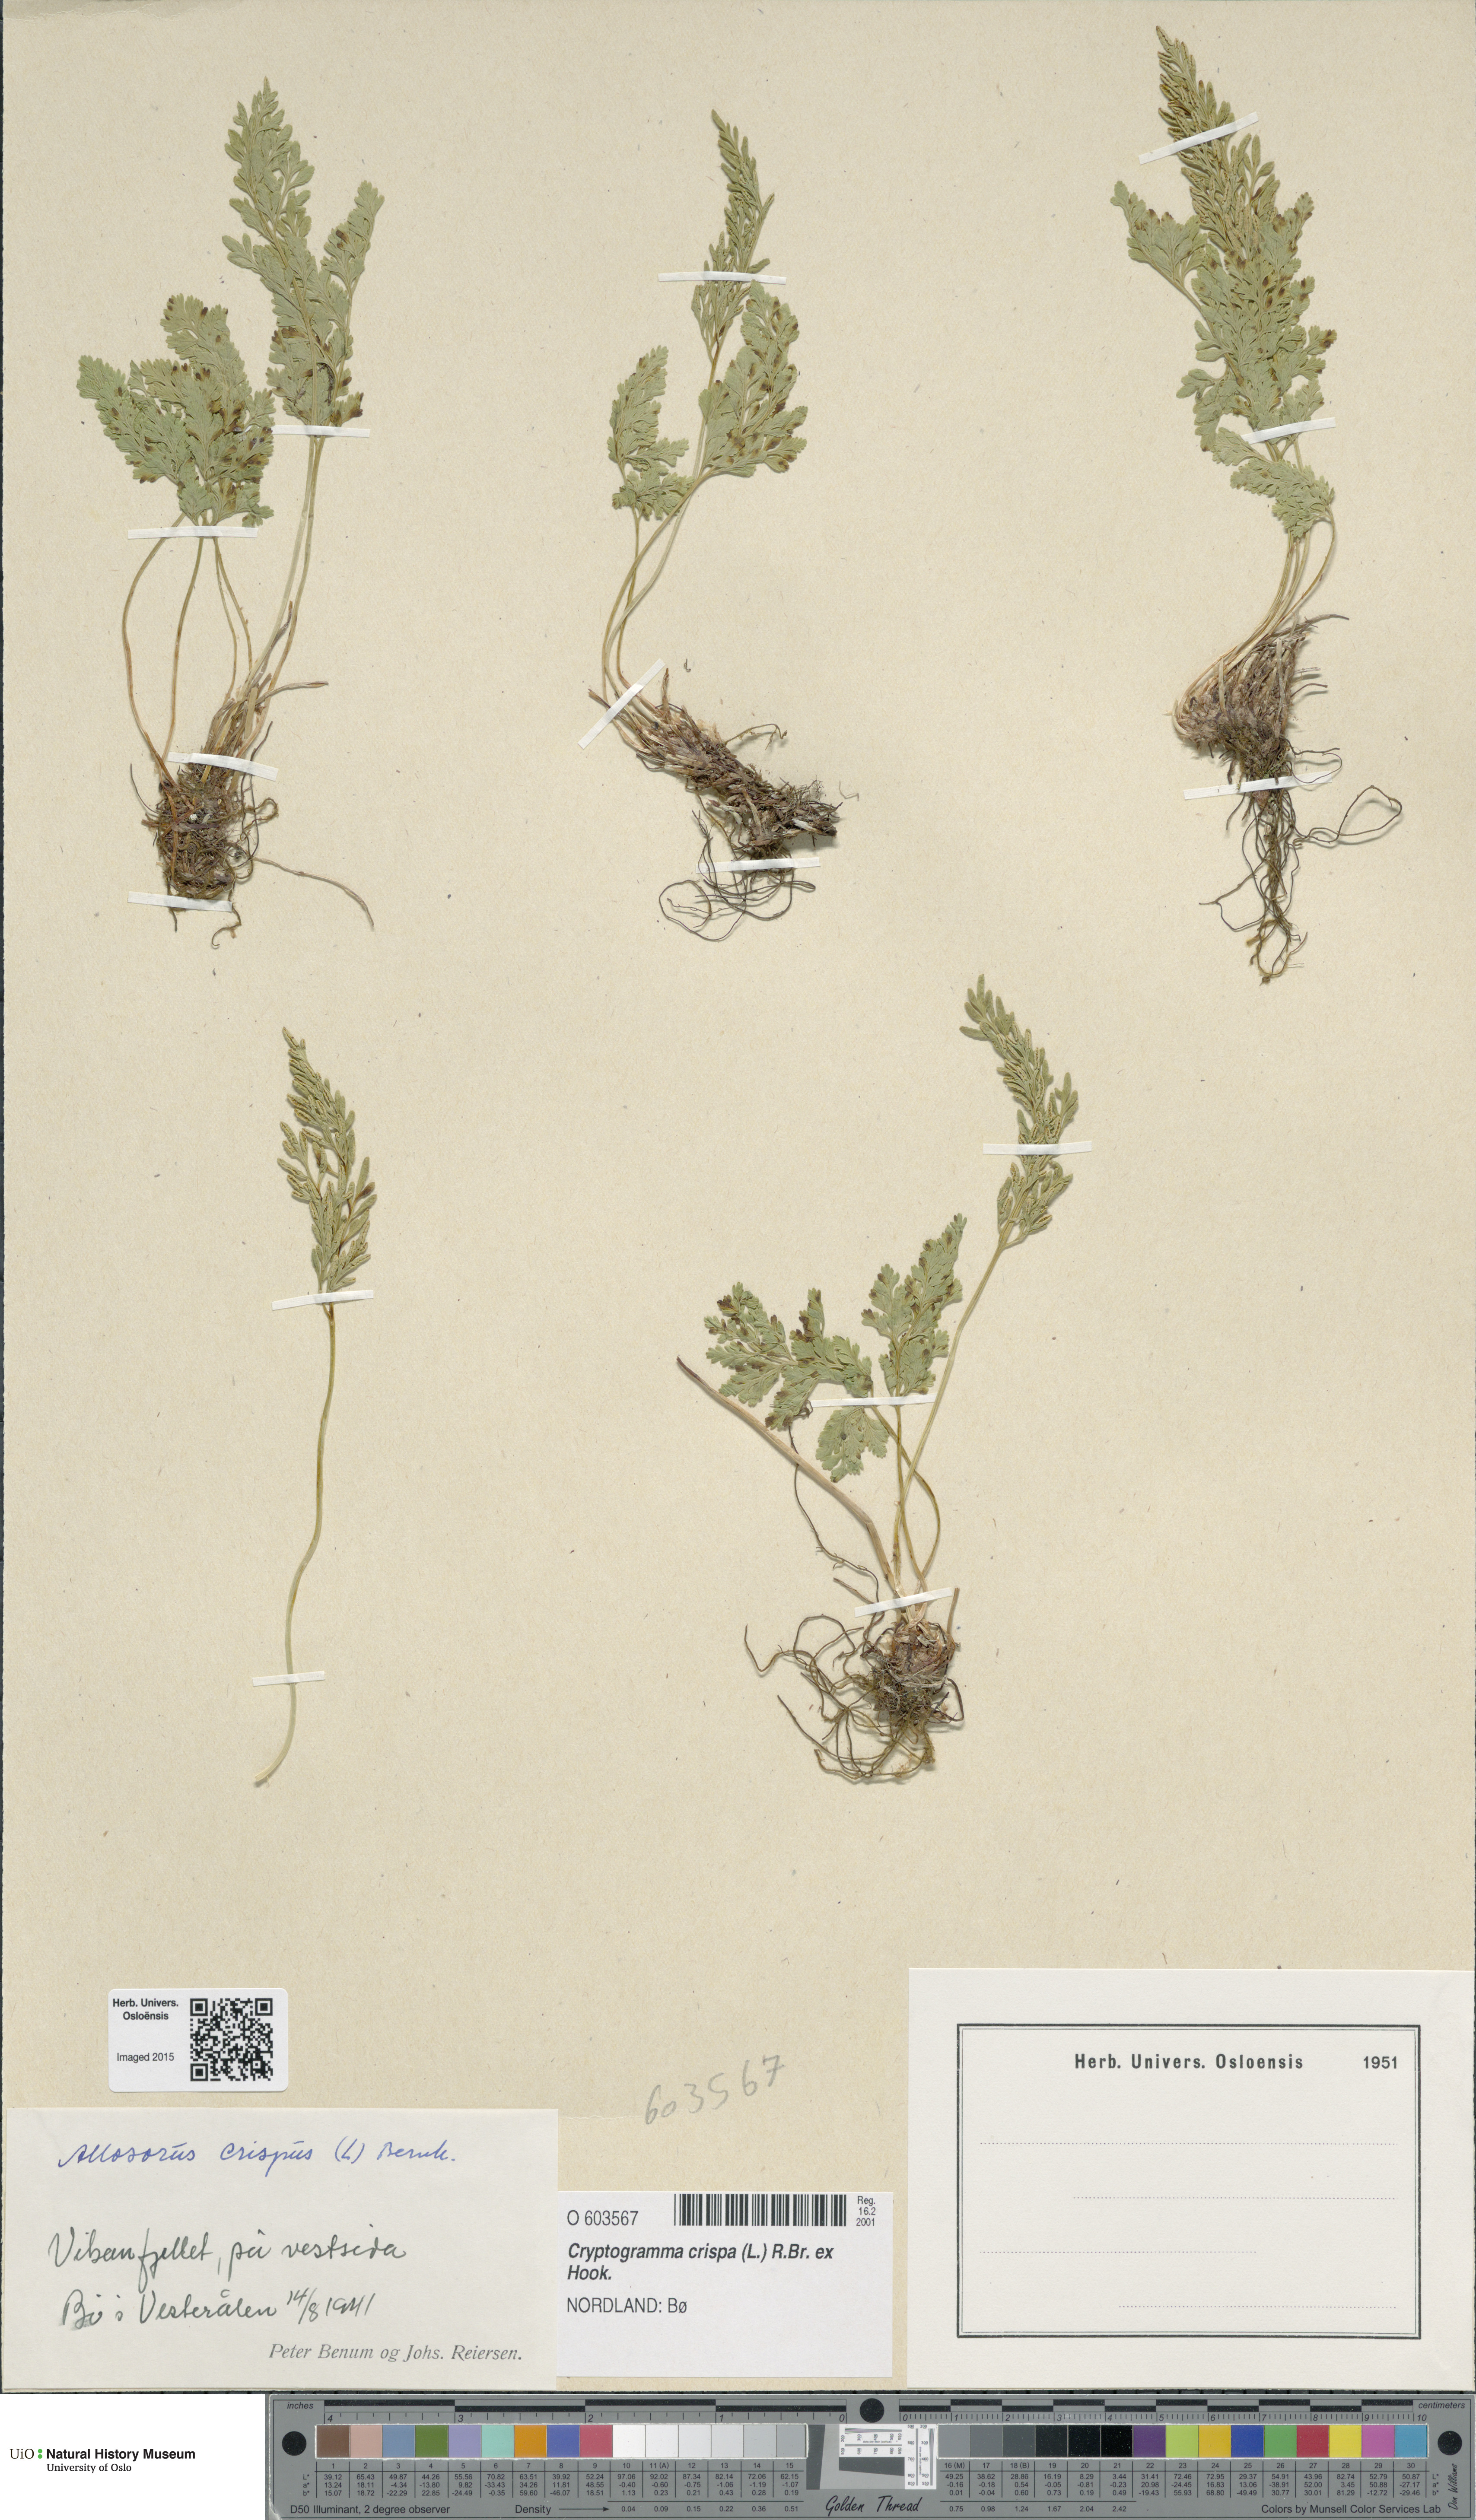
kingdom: Plantae
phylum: Tracheophyta
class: Polypodiopsida
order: Polypodiales
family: Pteridaceae
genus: Cryptogramma
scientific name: Cryptogramma crispa
